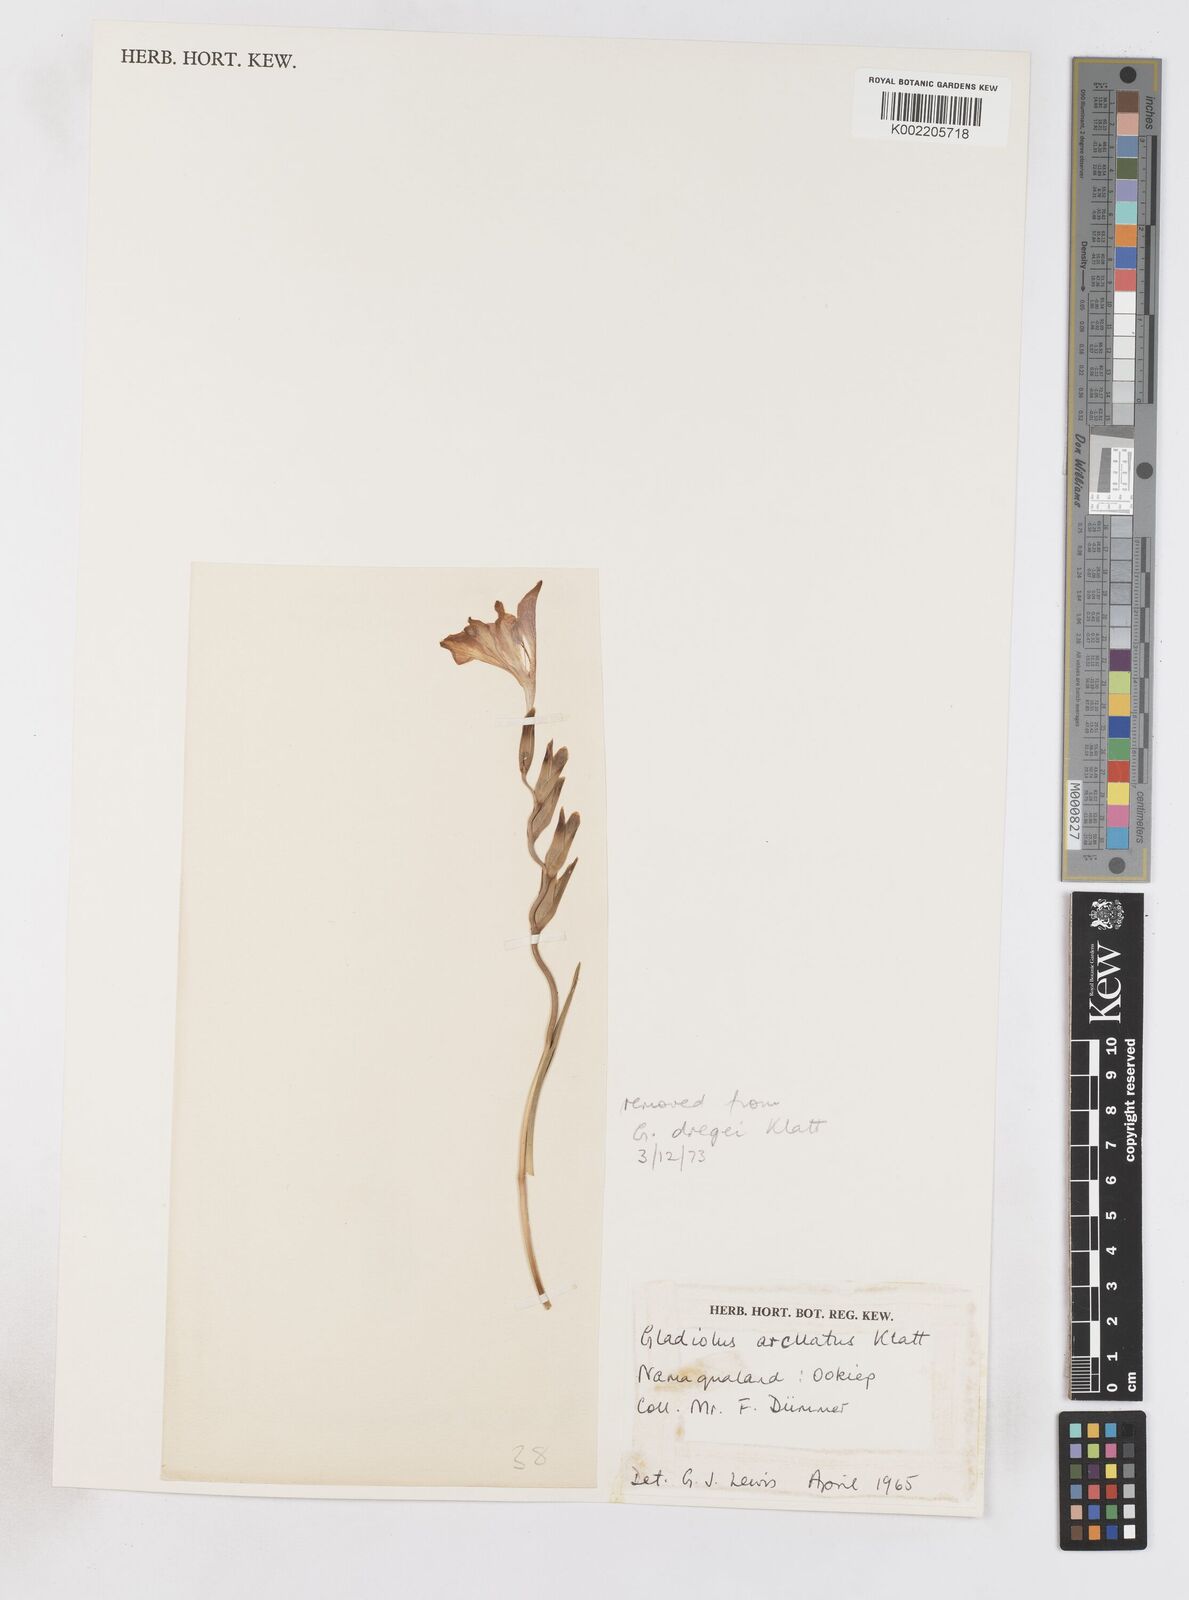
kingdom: Plantae
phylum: Tracheophyta
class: Liliopsida
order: Asparagales
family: Iridaceae
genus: Gladiolus
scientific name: Gladiolus arcuatus
